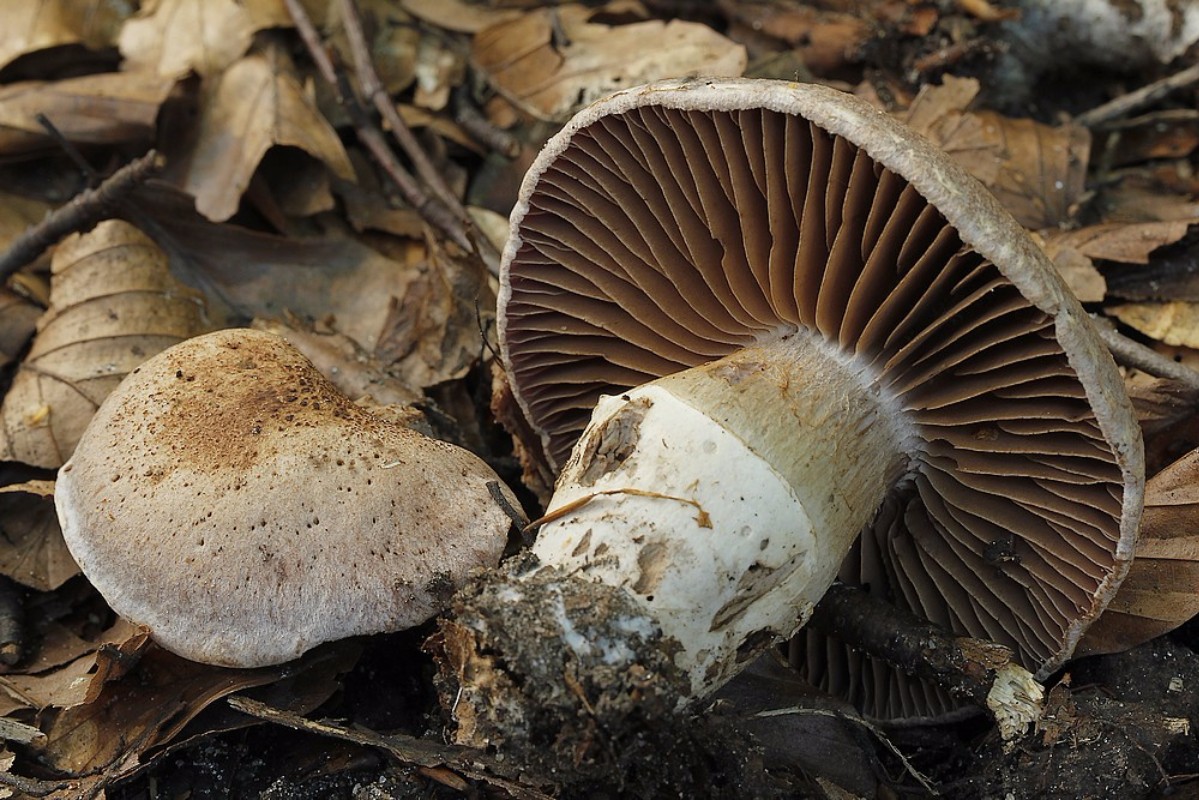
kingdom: Fungi
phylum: Basidiomycota
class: Agaricomycetes
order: Agaricales
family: Cortinariaceae
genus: Cortinarius
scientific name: Cortinarius torvus
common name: champignonagtig slørhat
